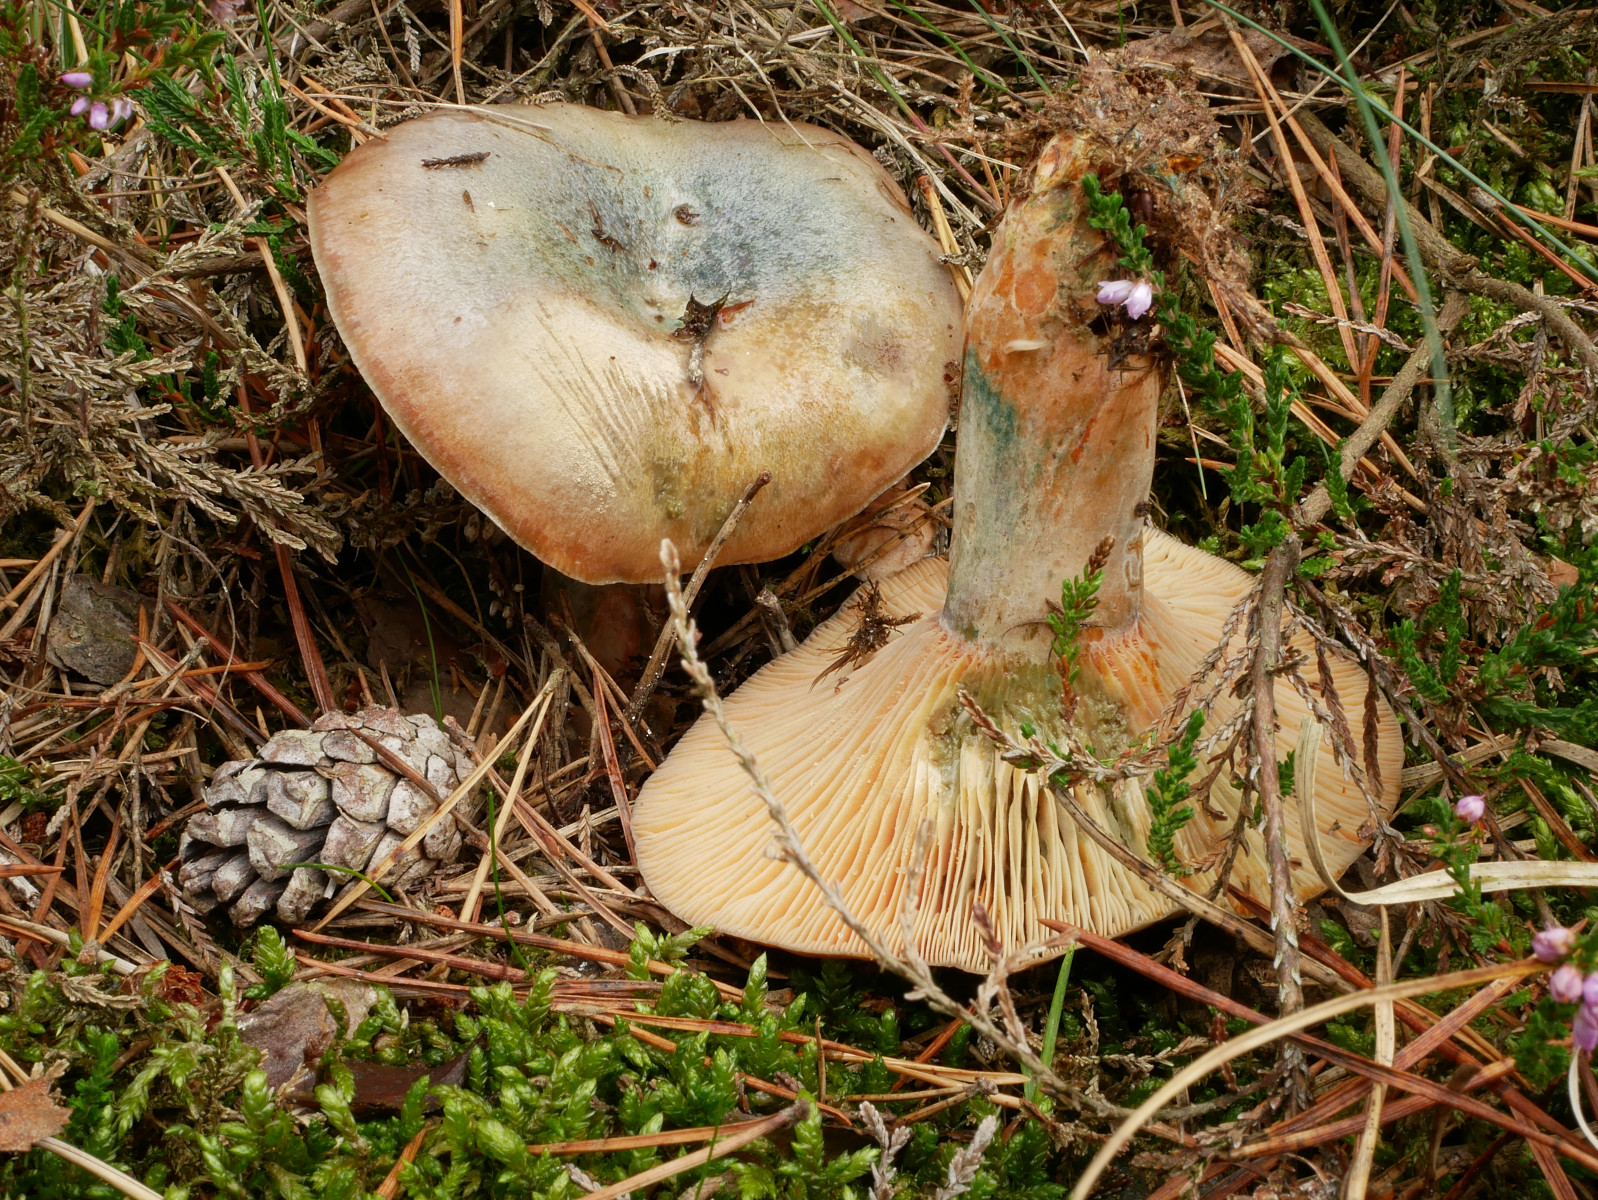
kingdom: Fungi
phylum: Basidiomycota
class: Agaricomycetes
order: Russulales
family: Russulaceae
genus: Lactarius
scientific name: Lactarius quieticolor
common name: tvefarvet mælkehat
